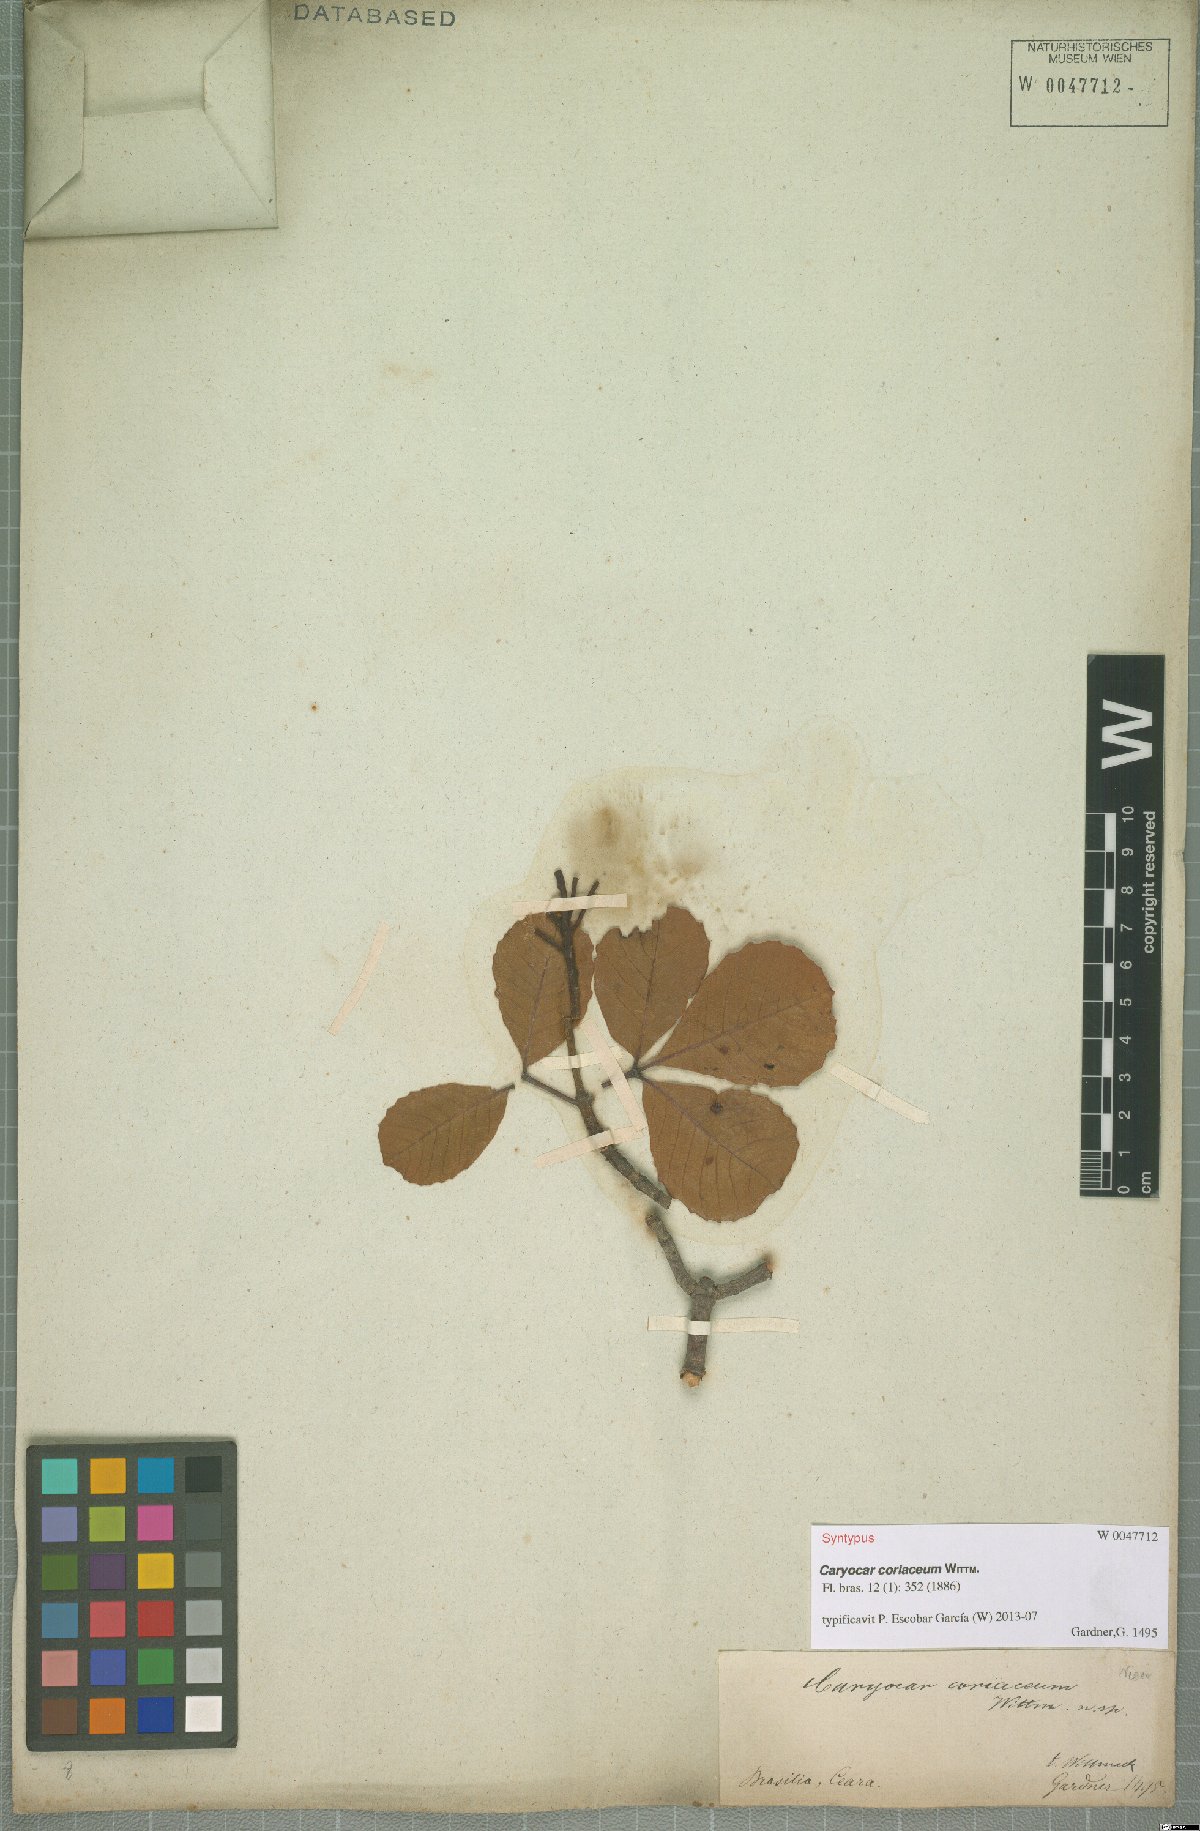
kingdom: Plantae
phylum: Tracheophyta
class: Magnoliopsida
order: Malpighiales
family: Caryocaraceae
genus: Caryocar
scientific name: Caryocar coriaceum
